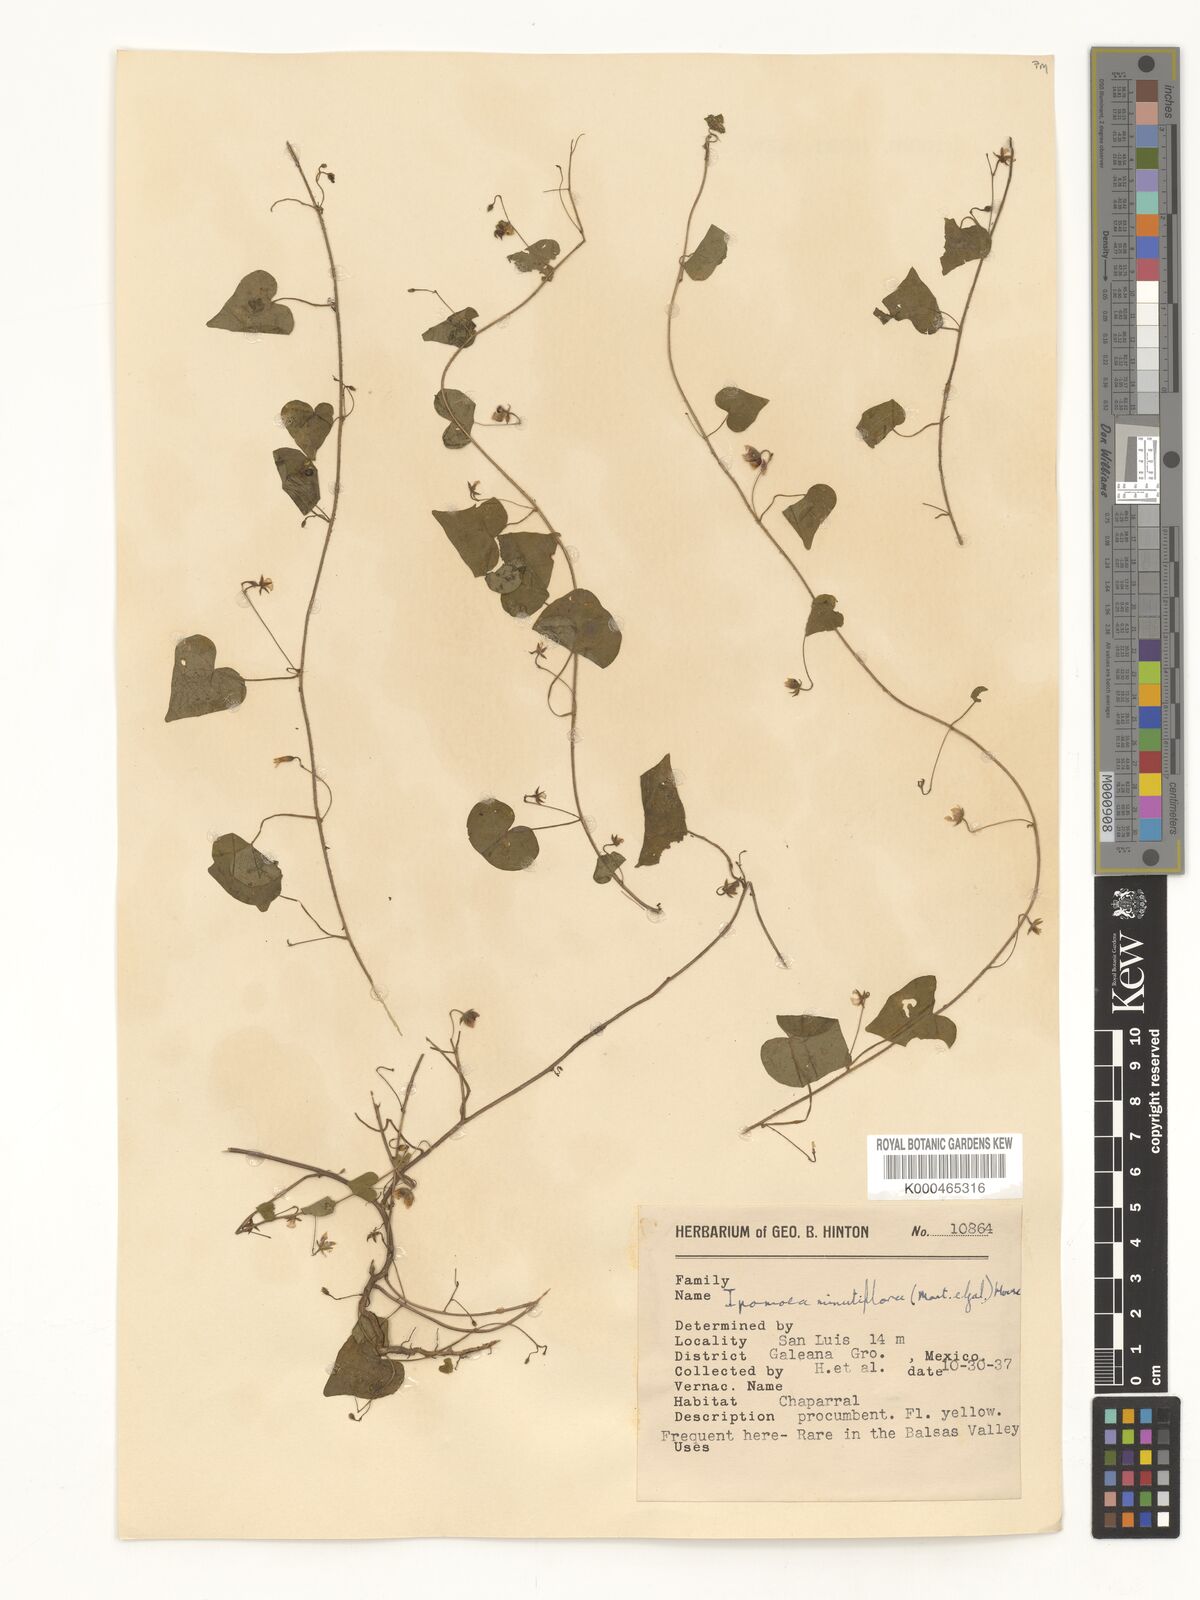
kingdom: Plantae
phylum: Tracheophyta
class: Magnoliopsida
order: Solanales
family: Convolvulaceae
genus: Ipomoea
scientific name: Ipomoea minutiflora
